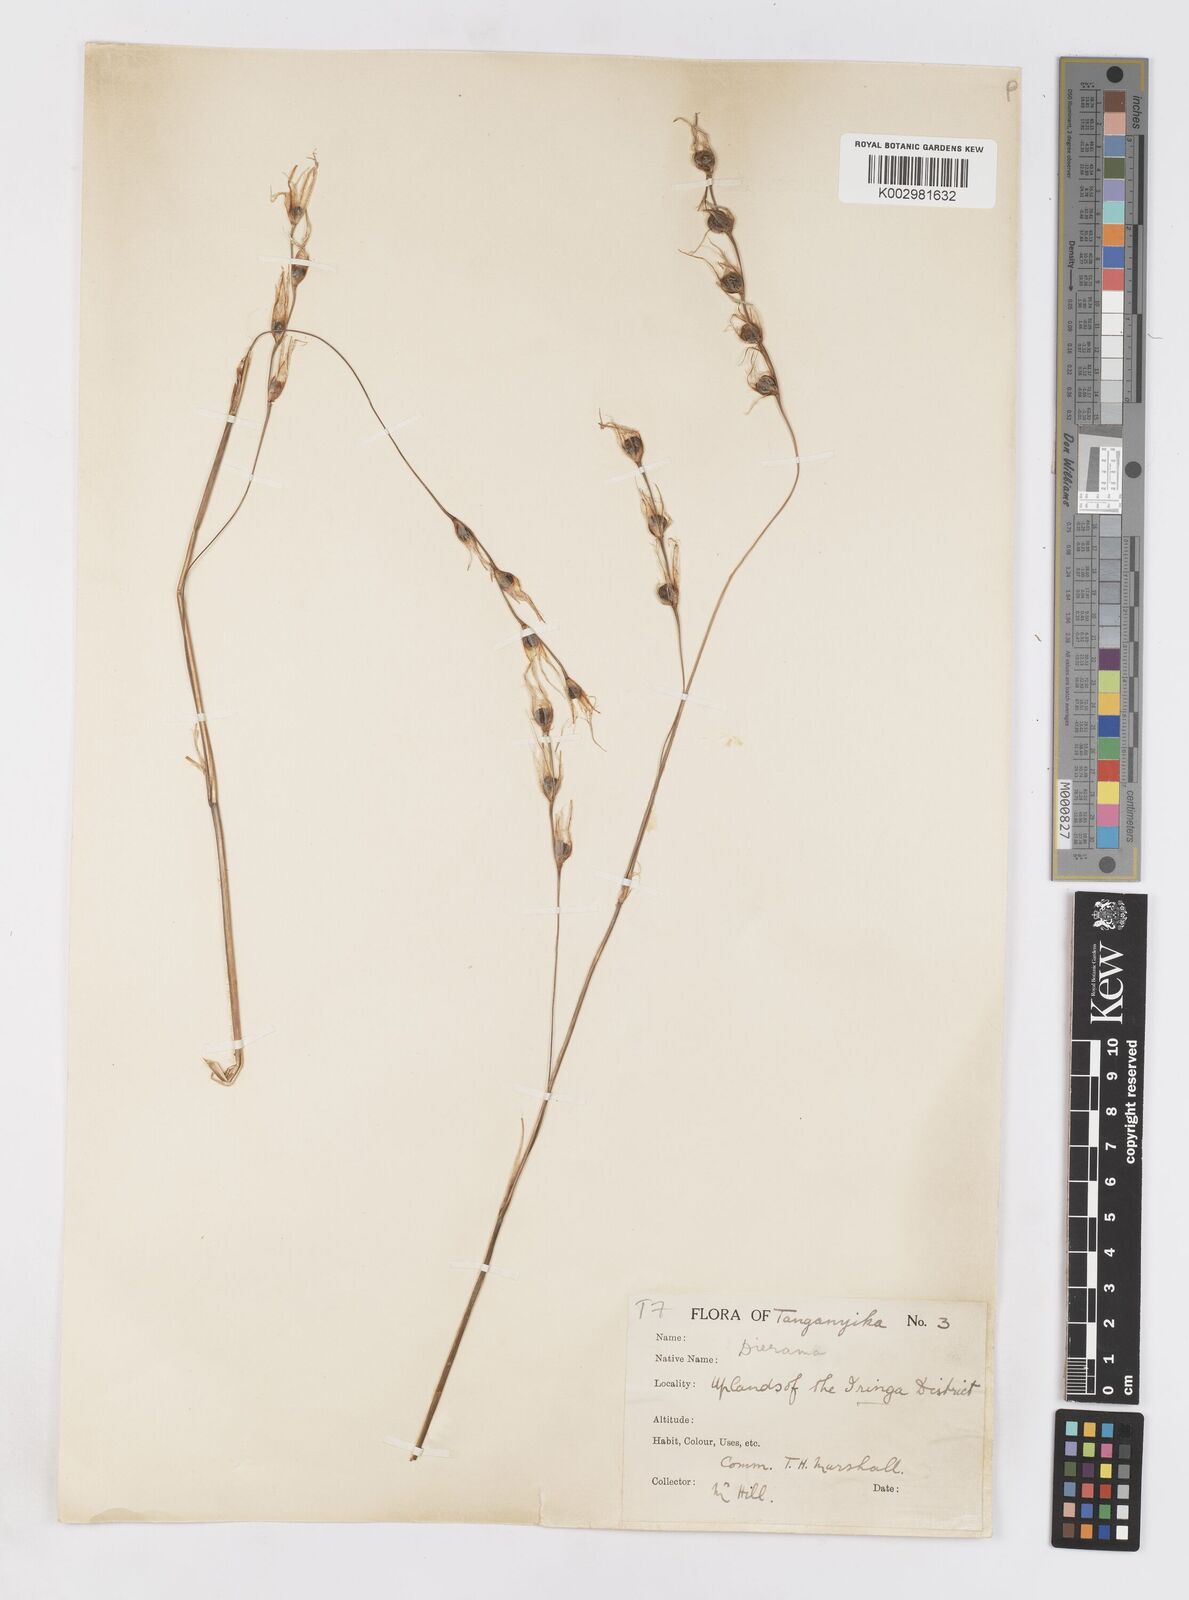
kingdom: Plantae
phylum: Tracheophyta
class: Liliopsida
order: Asparagales
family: Iridaceae
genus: Dierama
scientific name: Dierama cupuliflorum
